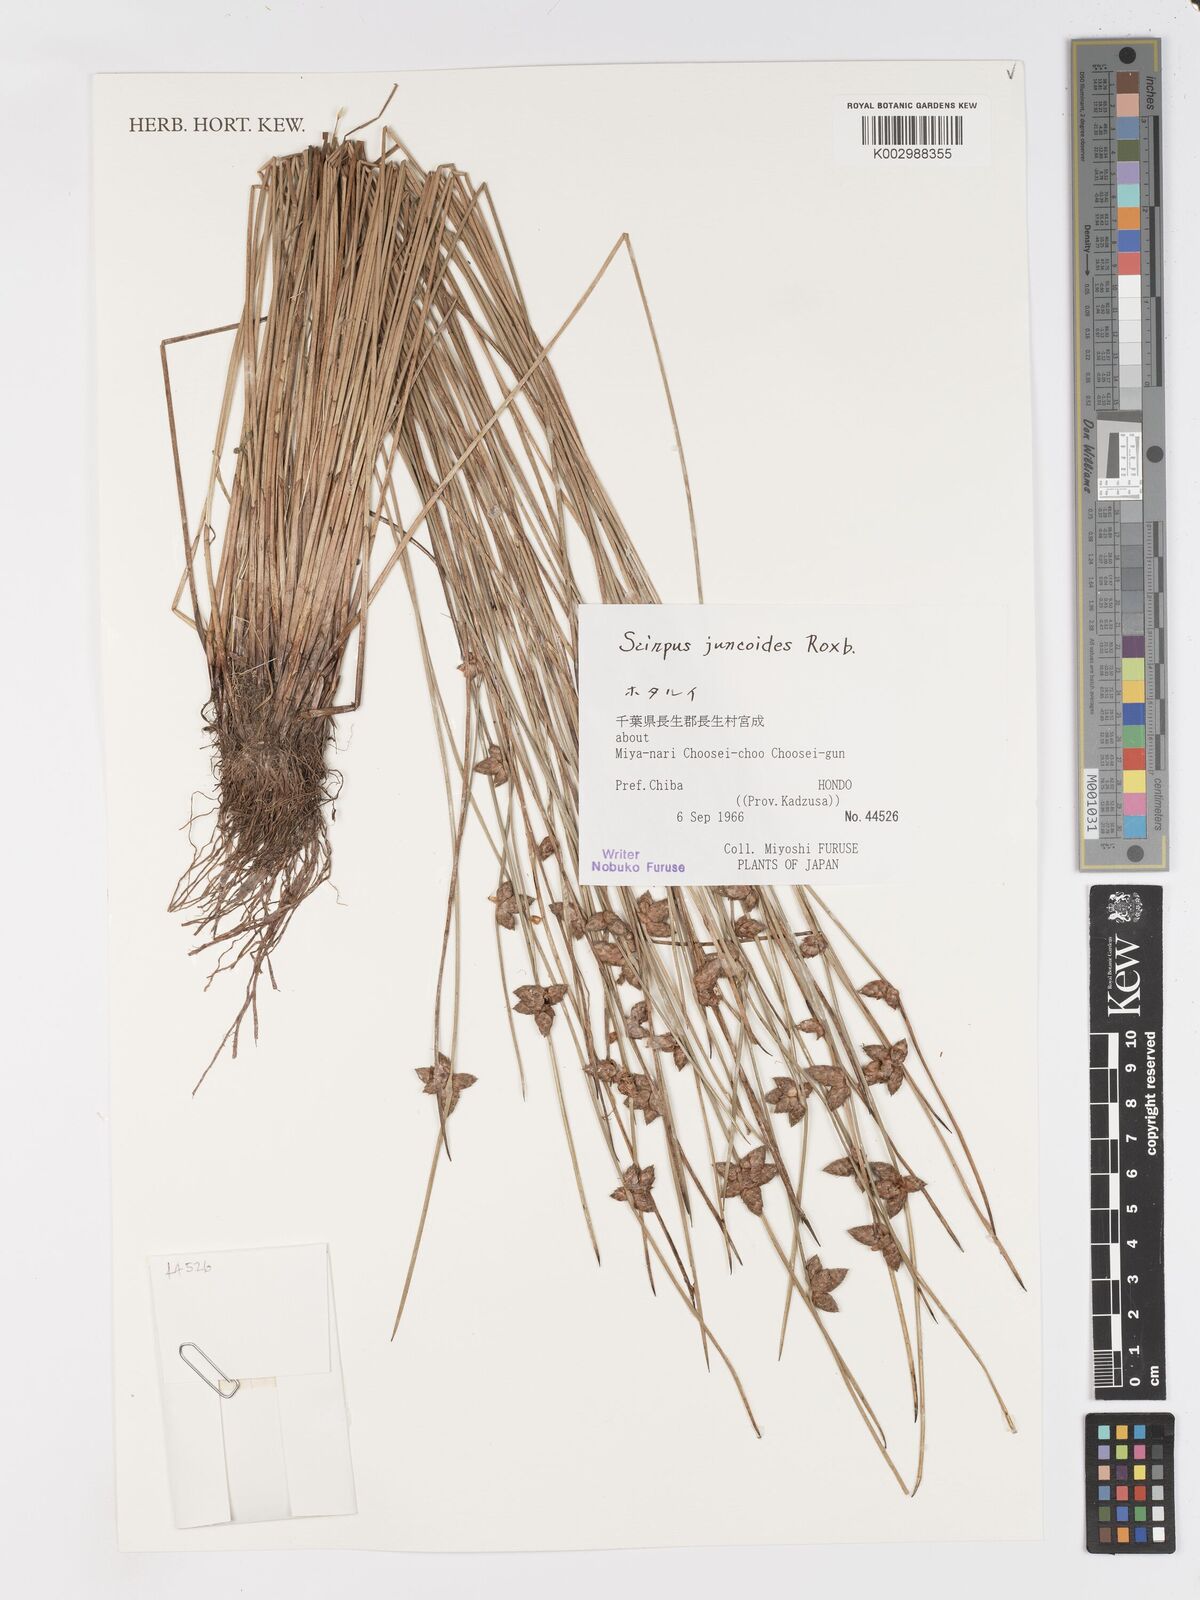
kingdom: Plantae
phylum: Tracheophyta
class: Liliopsida
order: Poales
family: Cyperaceae
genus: Schoenoplectiella
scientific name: Schoenoplectiella juncoides
